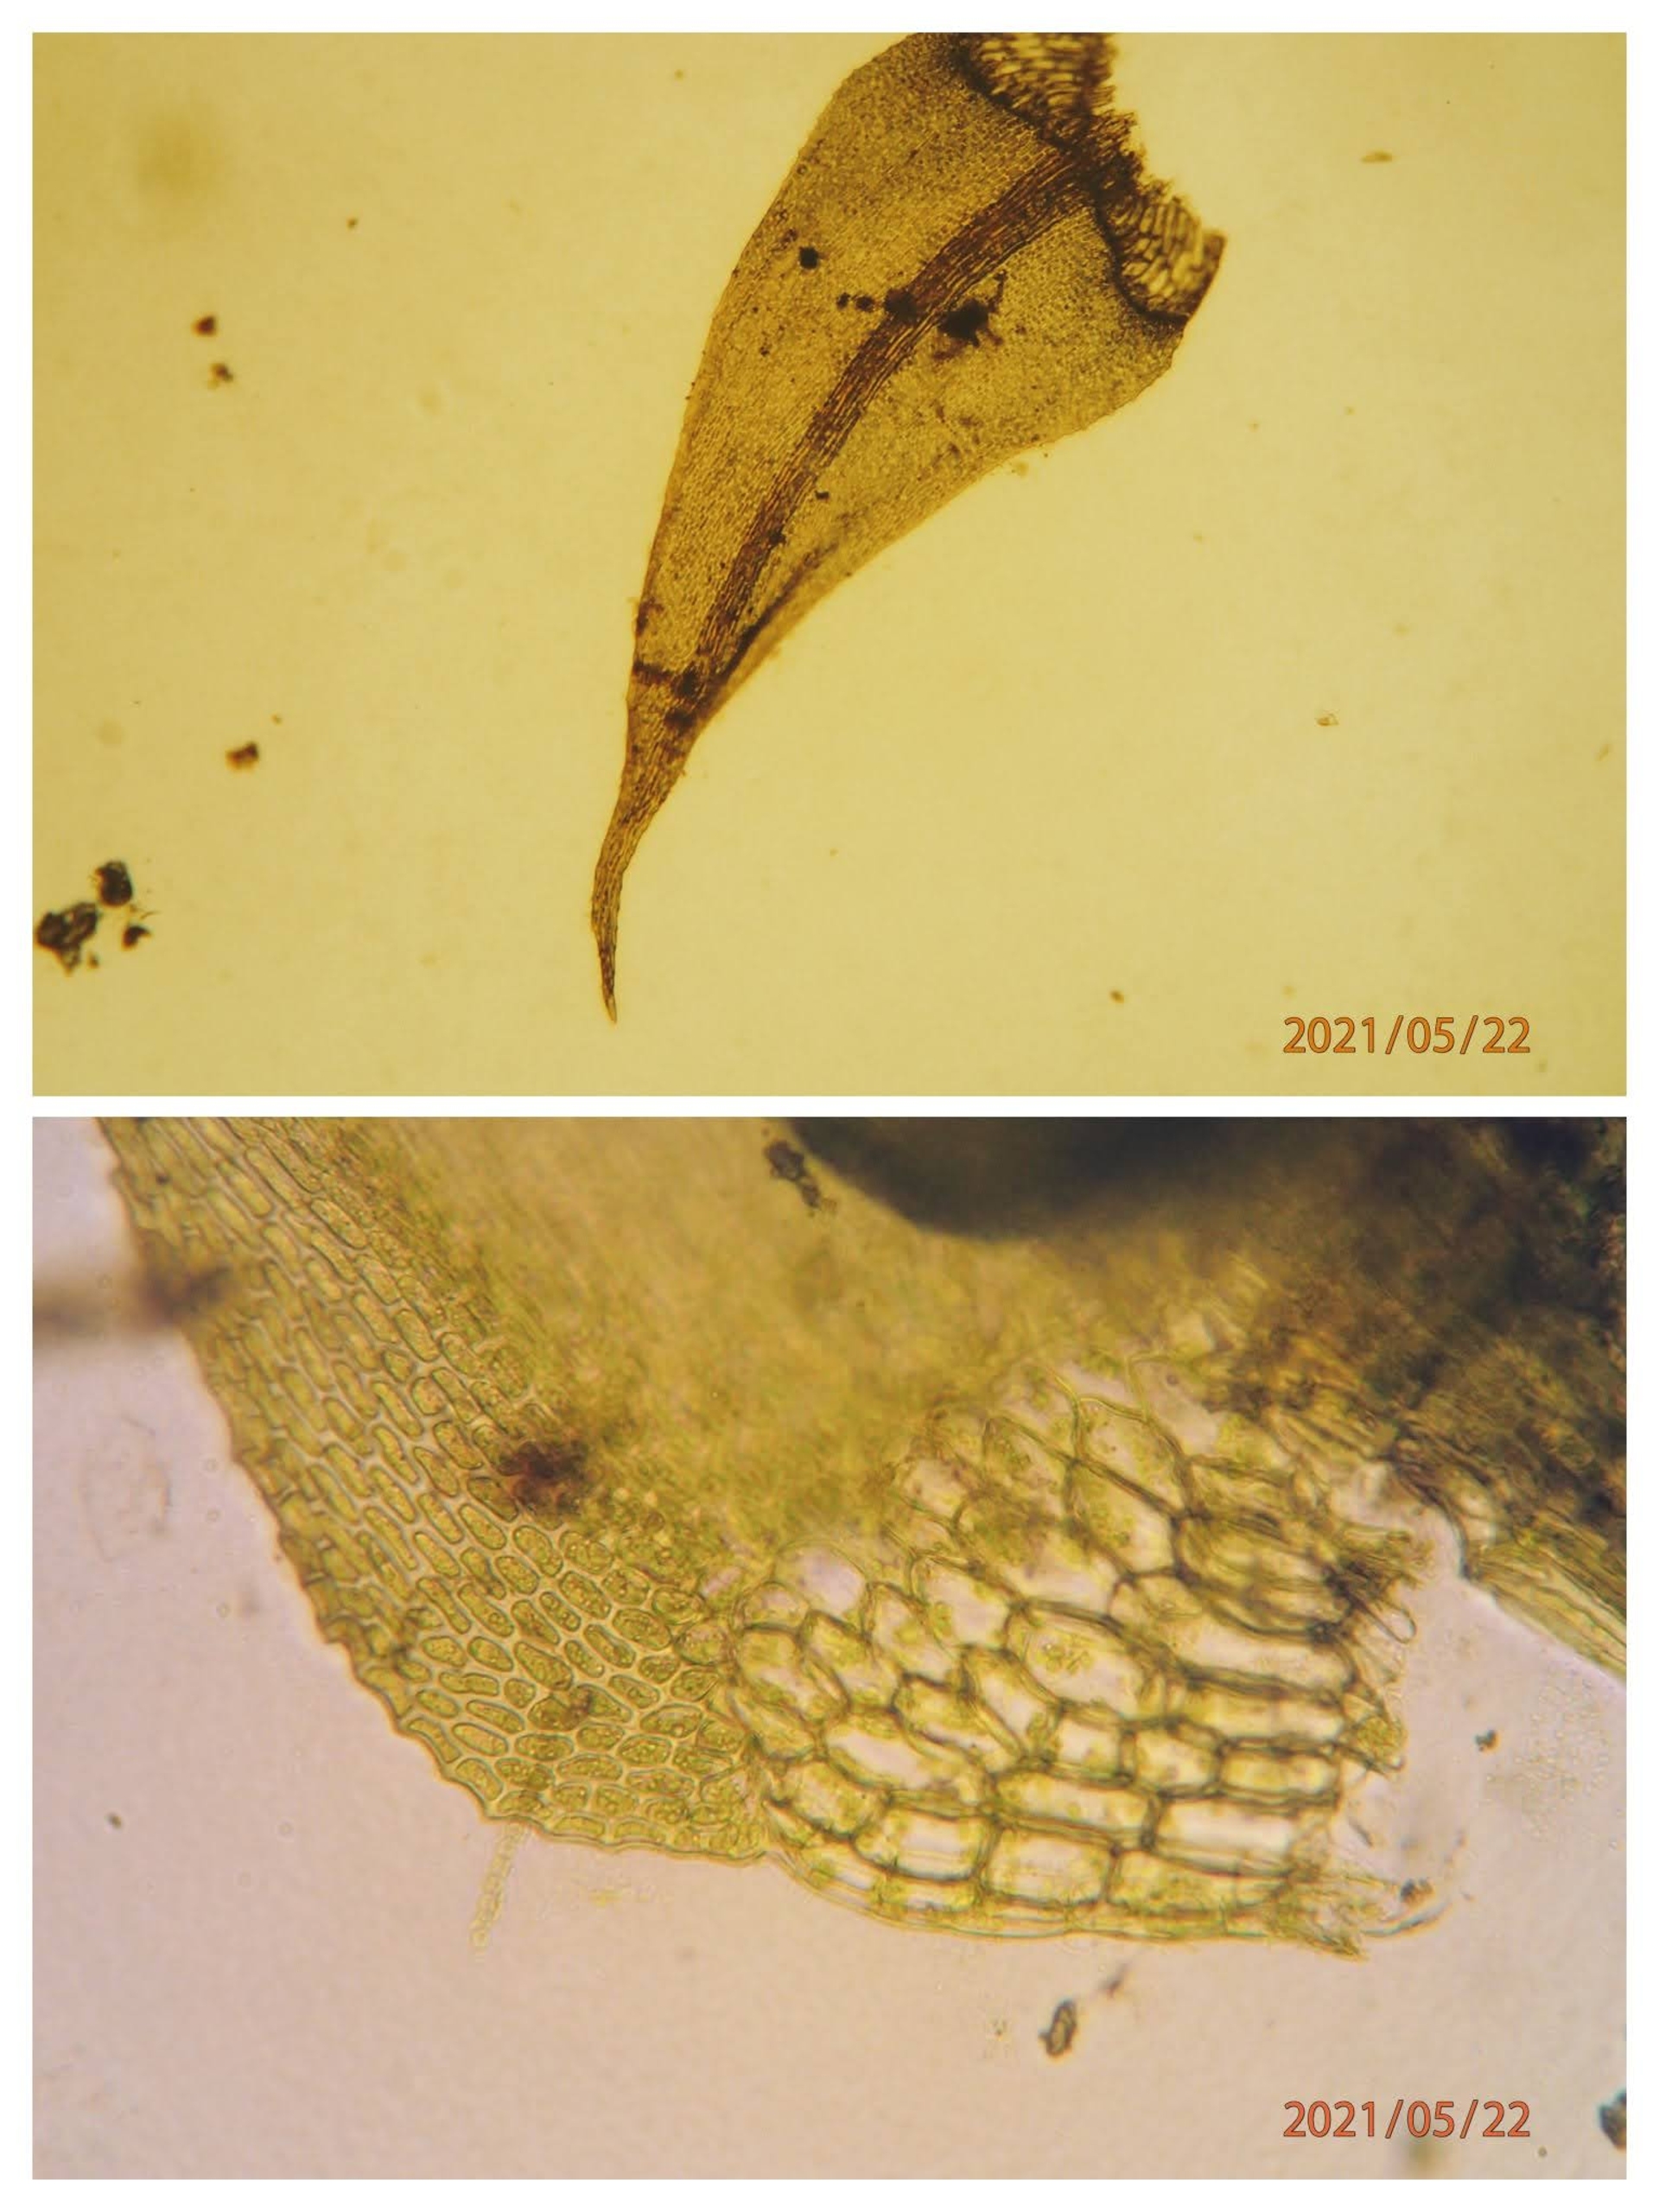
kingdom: Plantae
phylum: Bryophyta
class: Bryopsida
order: Hypnales
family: Amblystegiaceae
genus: Cratoneuron
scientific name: Cratoneuron filicinum
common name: Grøn eremitmos
